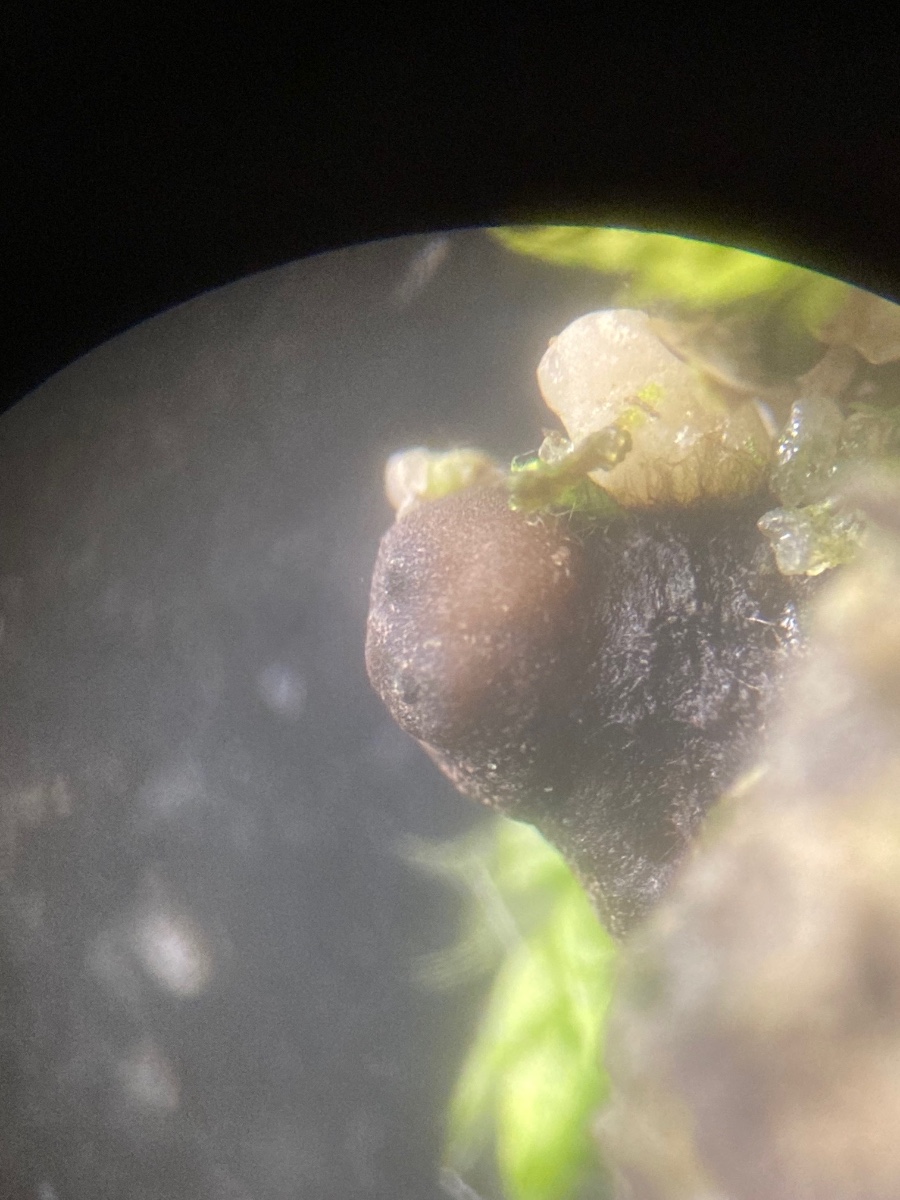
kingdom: Fungi
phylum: Ascomycota
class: Sordariomycetes
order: Xylariales
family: Xylariaceae
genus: Podosordaria
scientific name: Podosordaria tulasnei
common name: gødnings-stødsvamp
